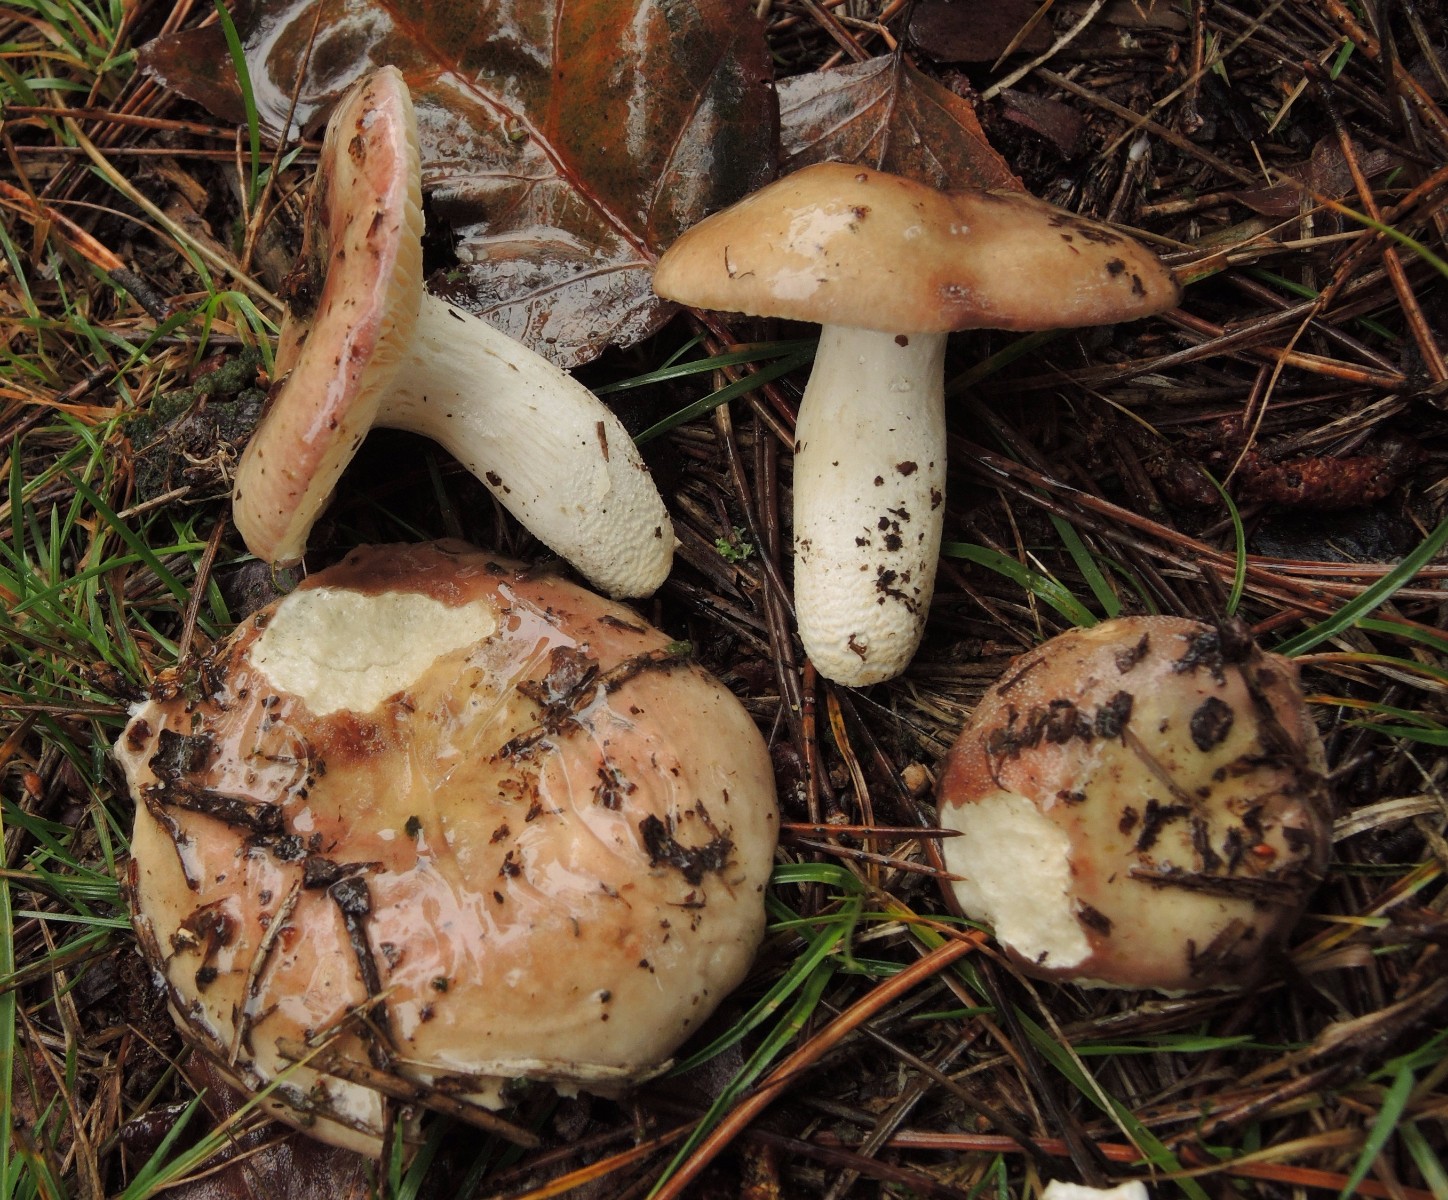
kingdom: Fungi
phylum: Basidiomycota
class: Agaricomycetes
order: Russulales
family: Russulaceae
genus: Russula
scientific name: Russula turci
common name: jod-skørhat
